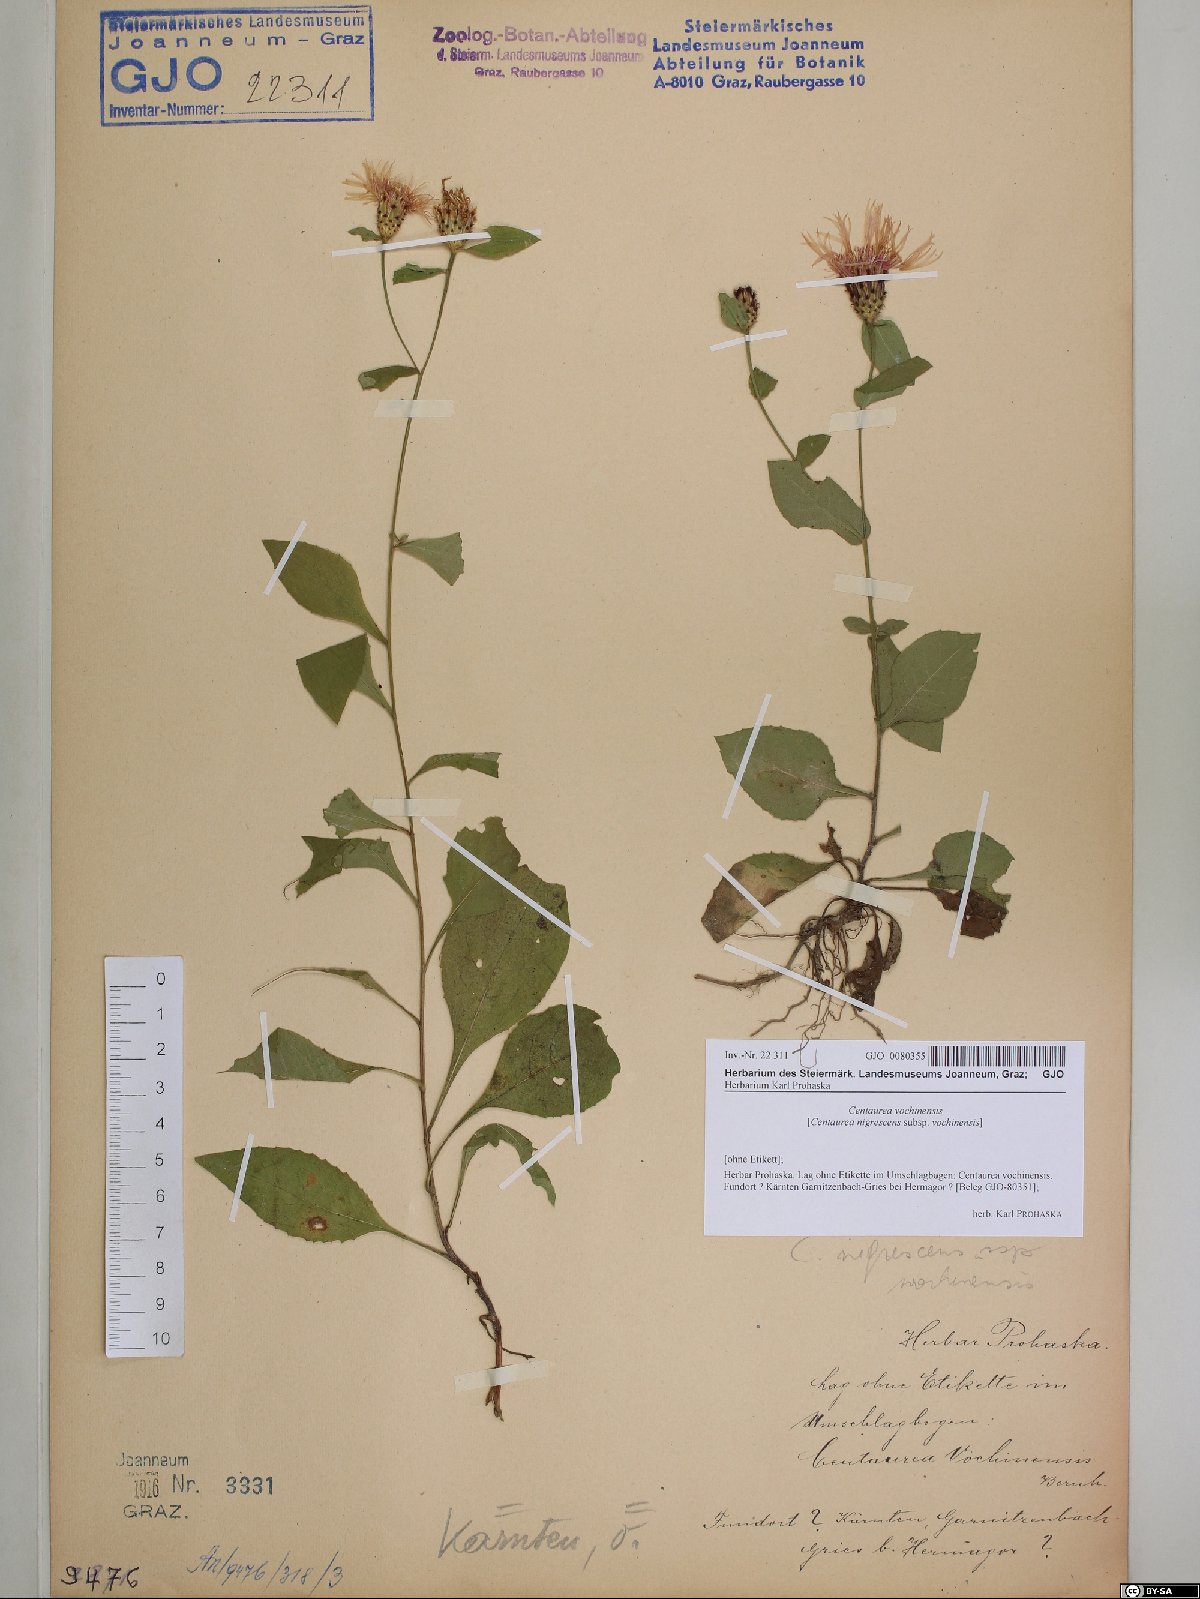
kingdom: Plantae
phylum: Tracheophyta
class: Magnoliopsida
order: Asterales
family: Asteraceae
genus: Centaurea
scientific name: Centaurea carniolica
